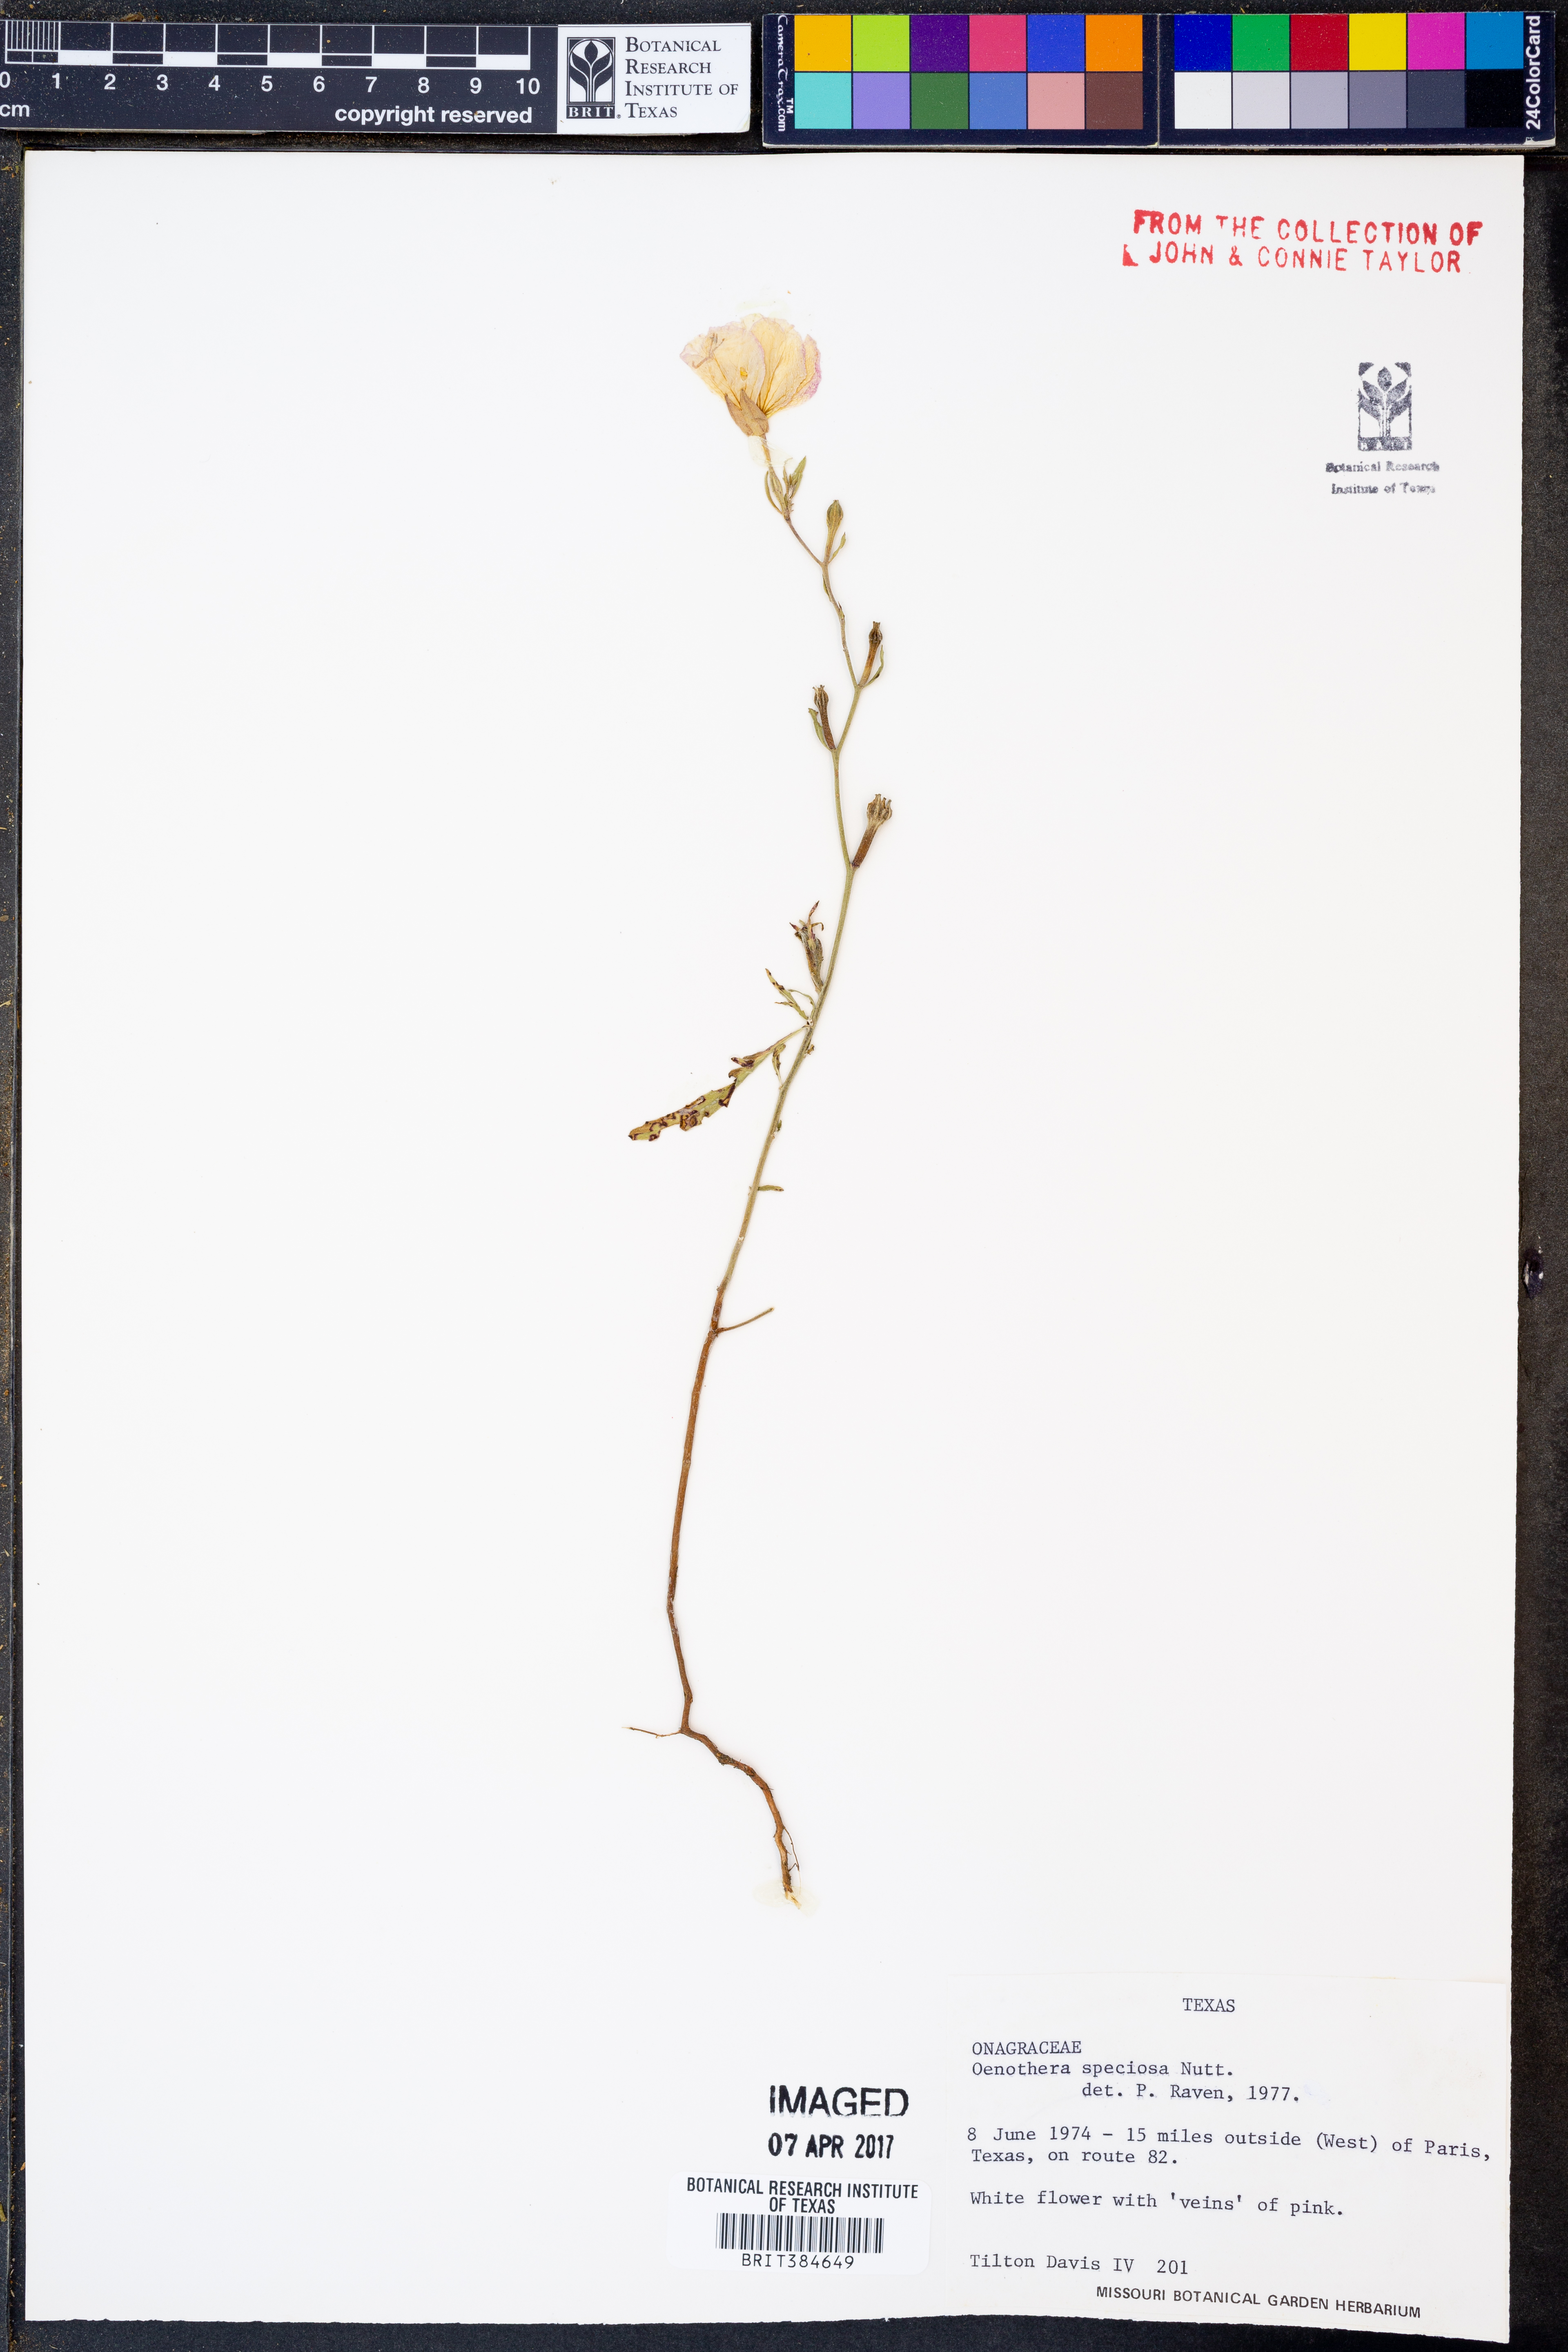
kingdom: Plantae
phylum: Tracheophyta
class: Magnoliopsida
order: Myrtales
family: Onagraceae
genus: Oenothera
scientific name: Oenothera speciosa
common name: White evening-primrose
